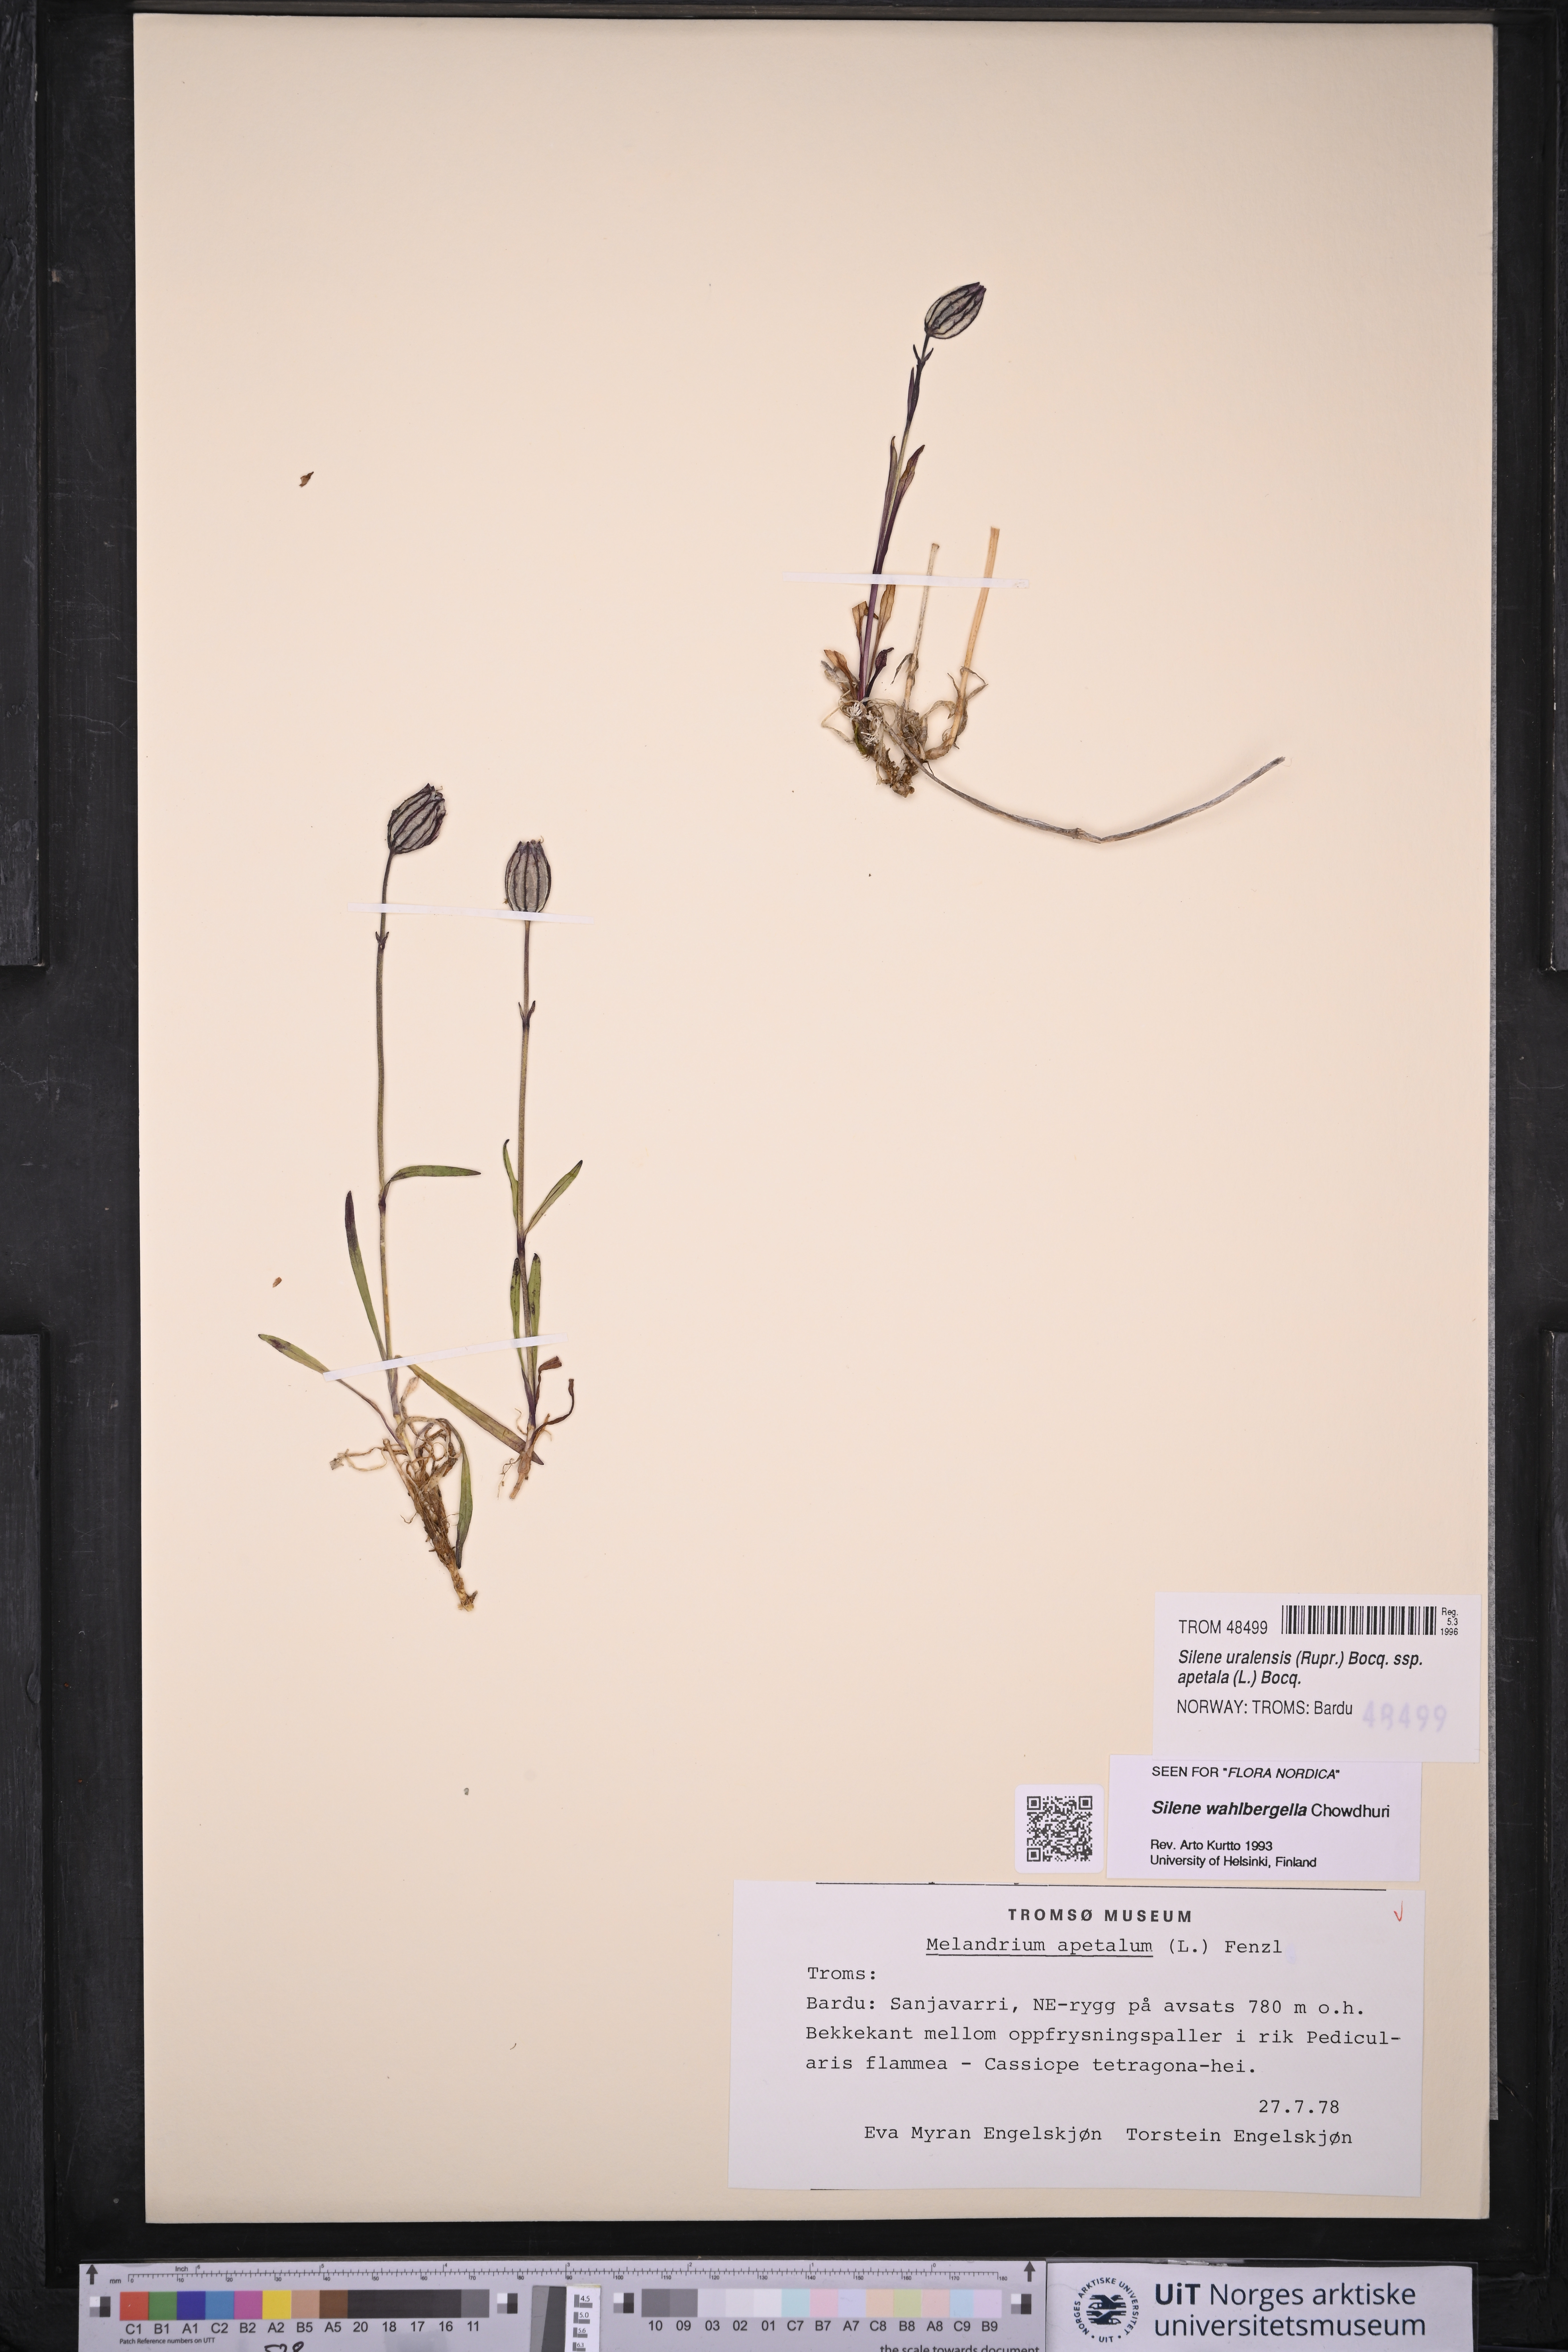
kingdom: Plantae
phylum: Tracheophyta
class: Magnoliopsida
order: Caryophyllales
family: Caryophyllaceae
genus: Silene
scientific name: Silene wahlbergella
